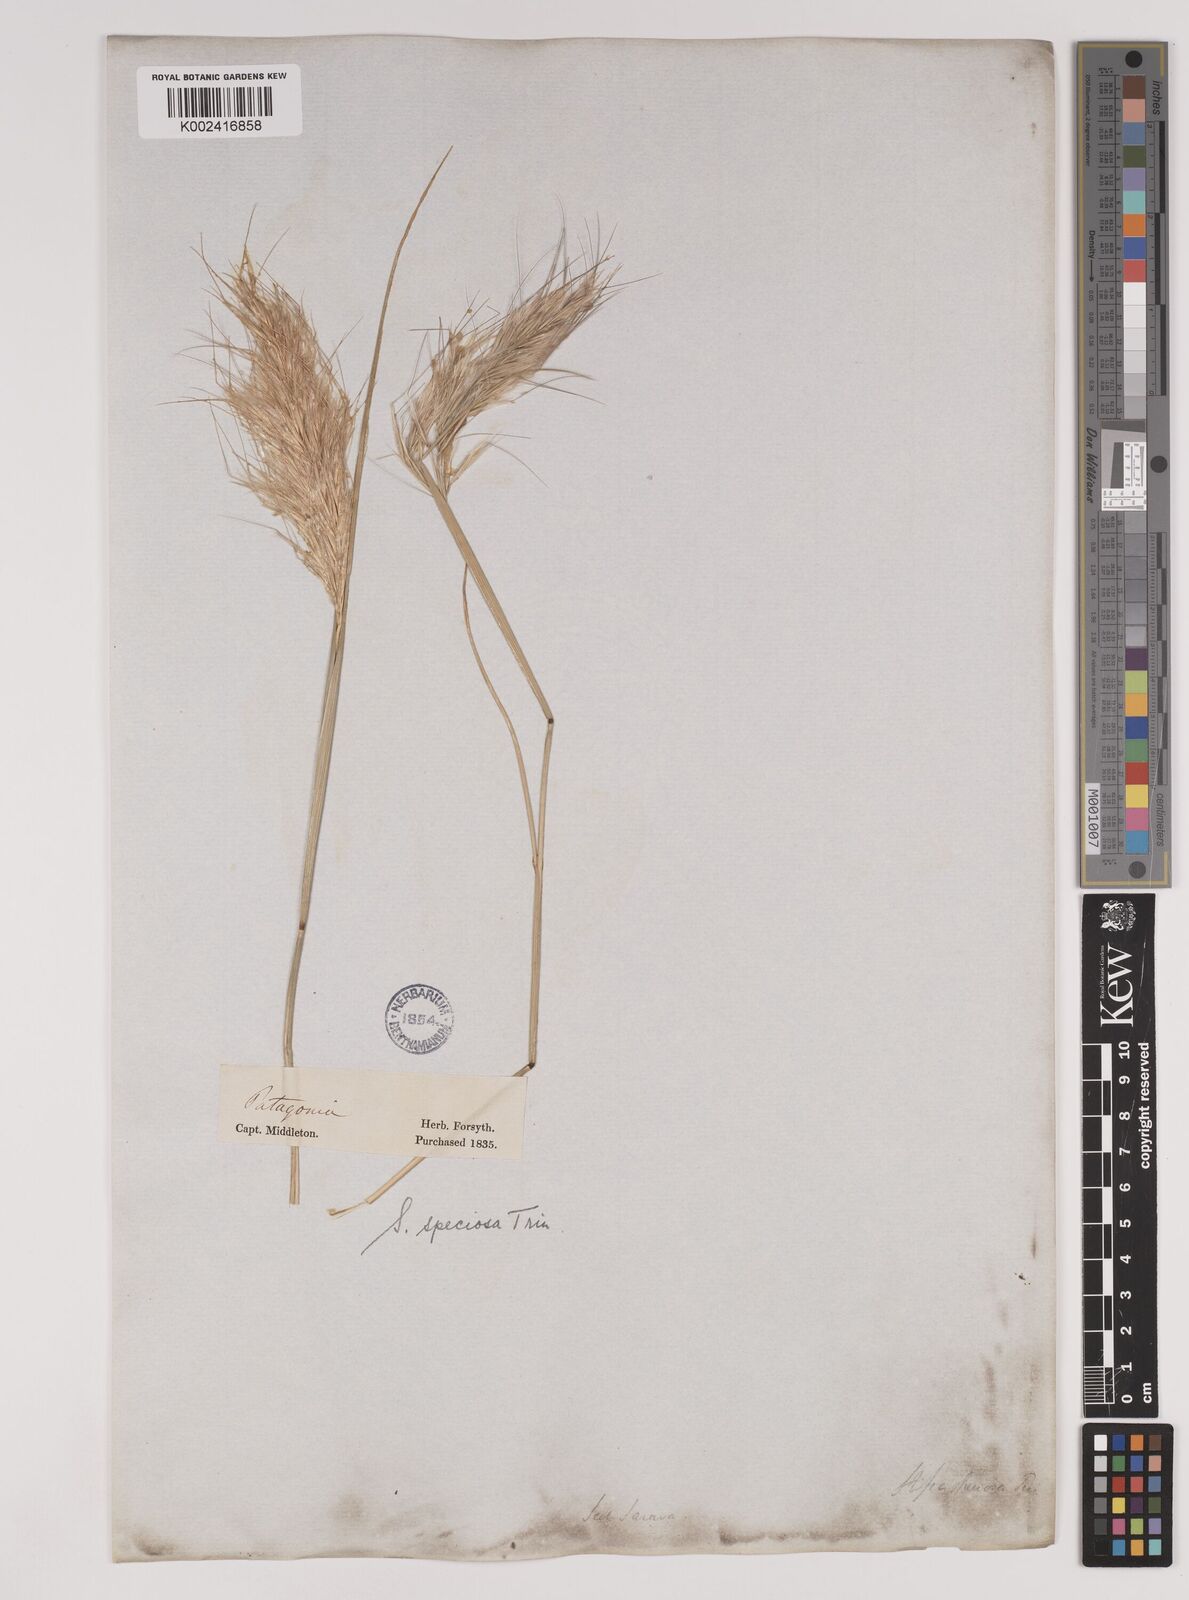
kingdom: Plantae
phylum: Tracheophyta
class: Liliopsida
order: Poales
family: Poaceae
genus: Pappostipa
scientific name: Pappostipa speciosa
